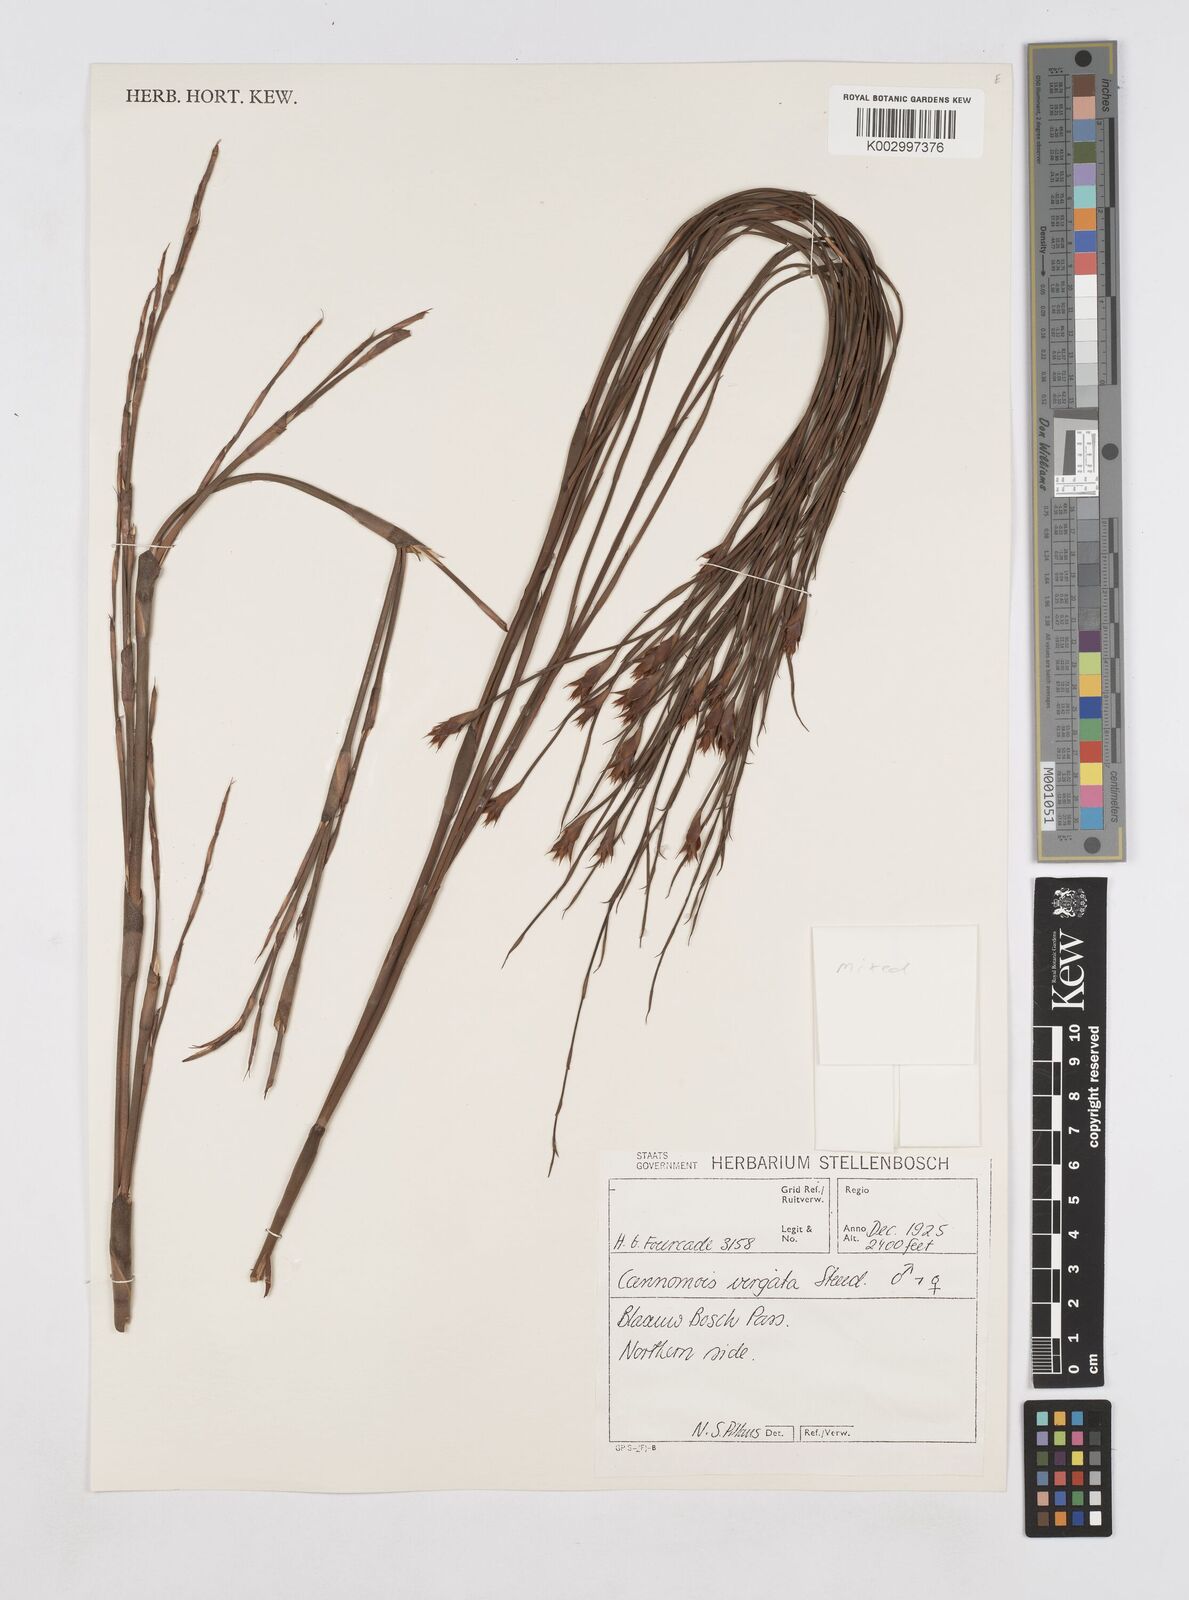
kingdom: Plantae
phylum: Tracheophyta
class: Liliopsida
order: Poales
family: Restionaceae
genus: Platycaulos
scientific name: Platycaulos callistachyus
